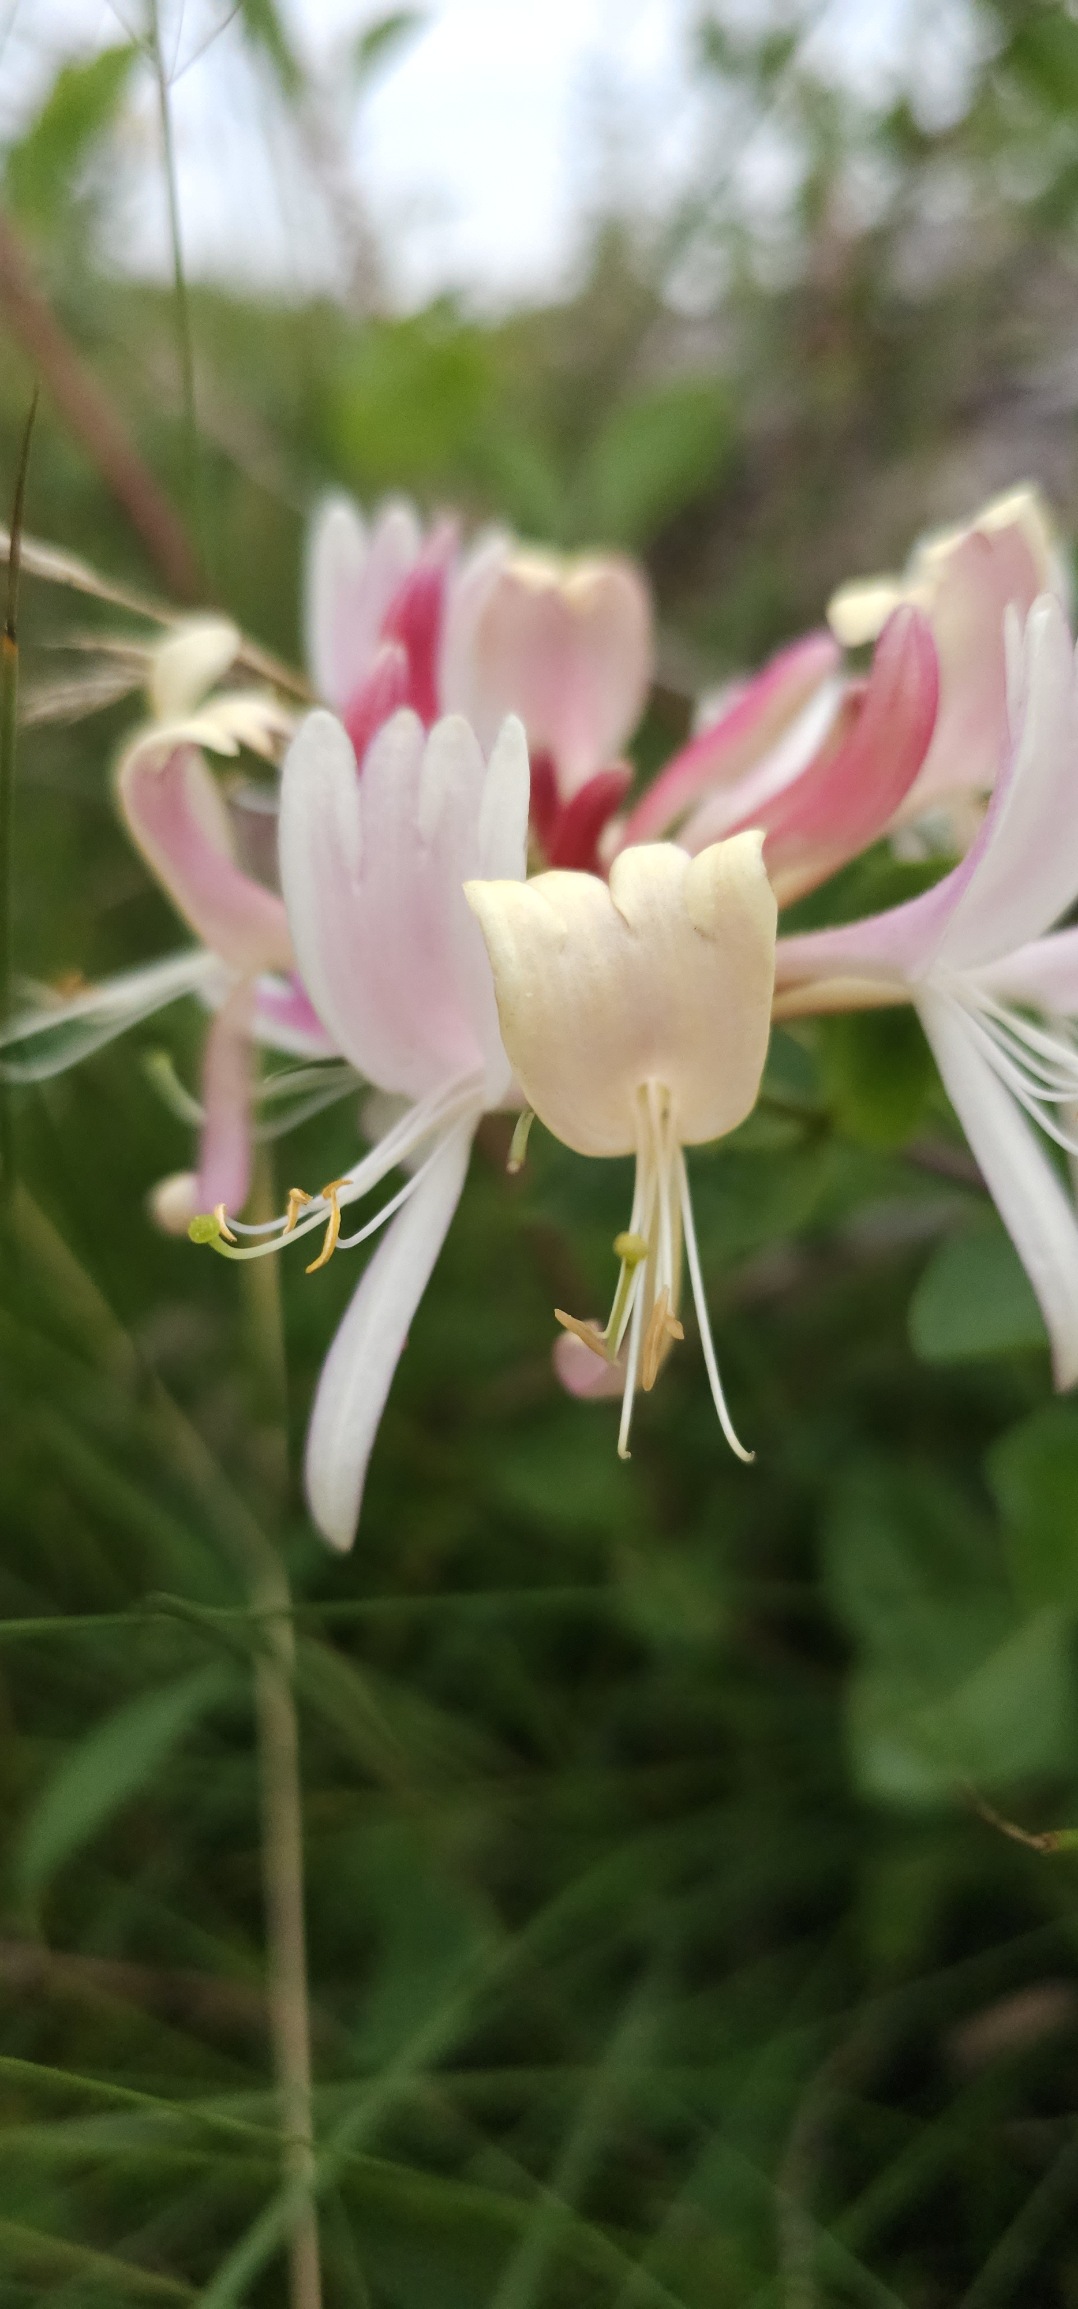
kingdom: Plantae
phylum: Tracheophyta
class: Magnoliopsida
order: Dipsacales
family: Caprifoliaceae
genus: Lonicera
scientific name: Lonicera periclymenum
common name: Almindelig gedeblad
